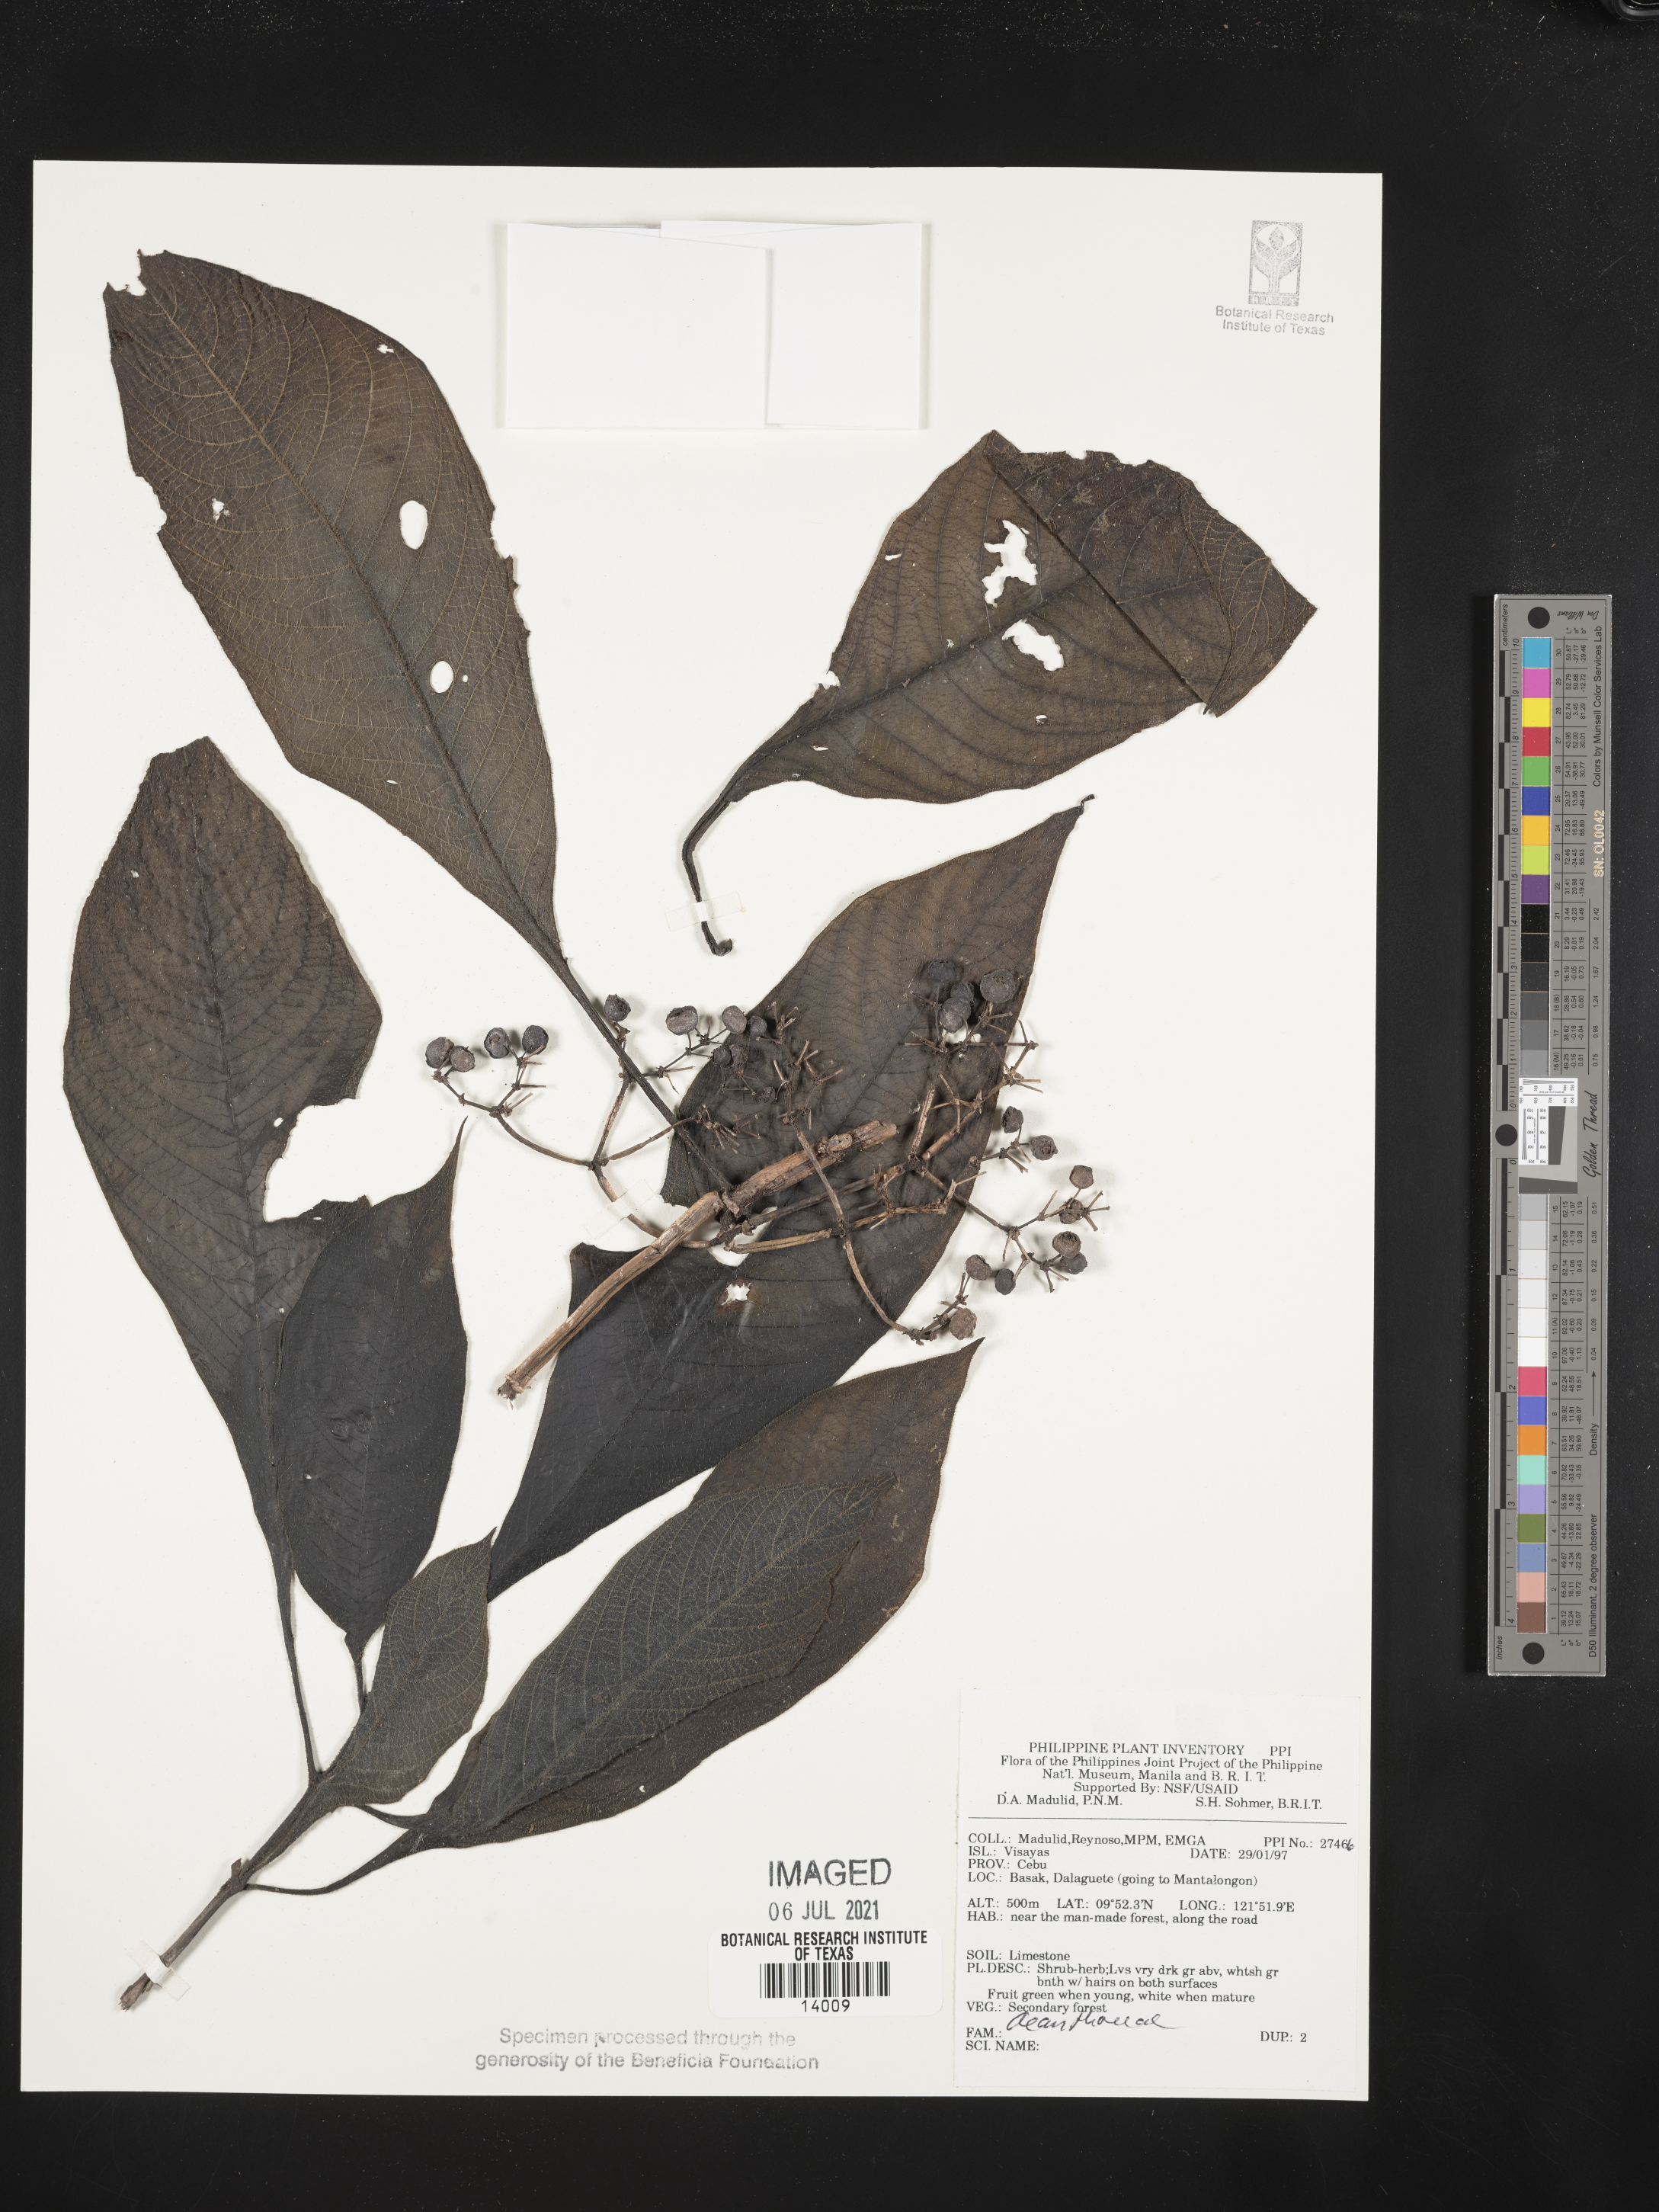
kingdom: Plantae
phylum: Tracheophyta
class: Magnoliopsida
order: Lamiales
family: Acanthaceae
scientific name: Acanthaceae
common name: Acanthaceae
